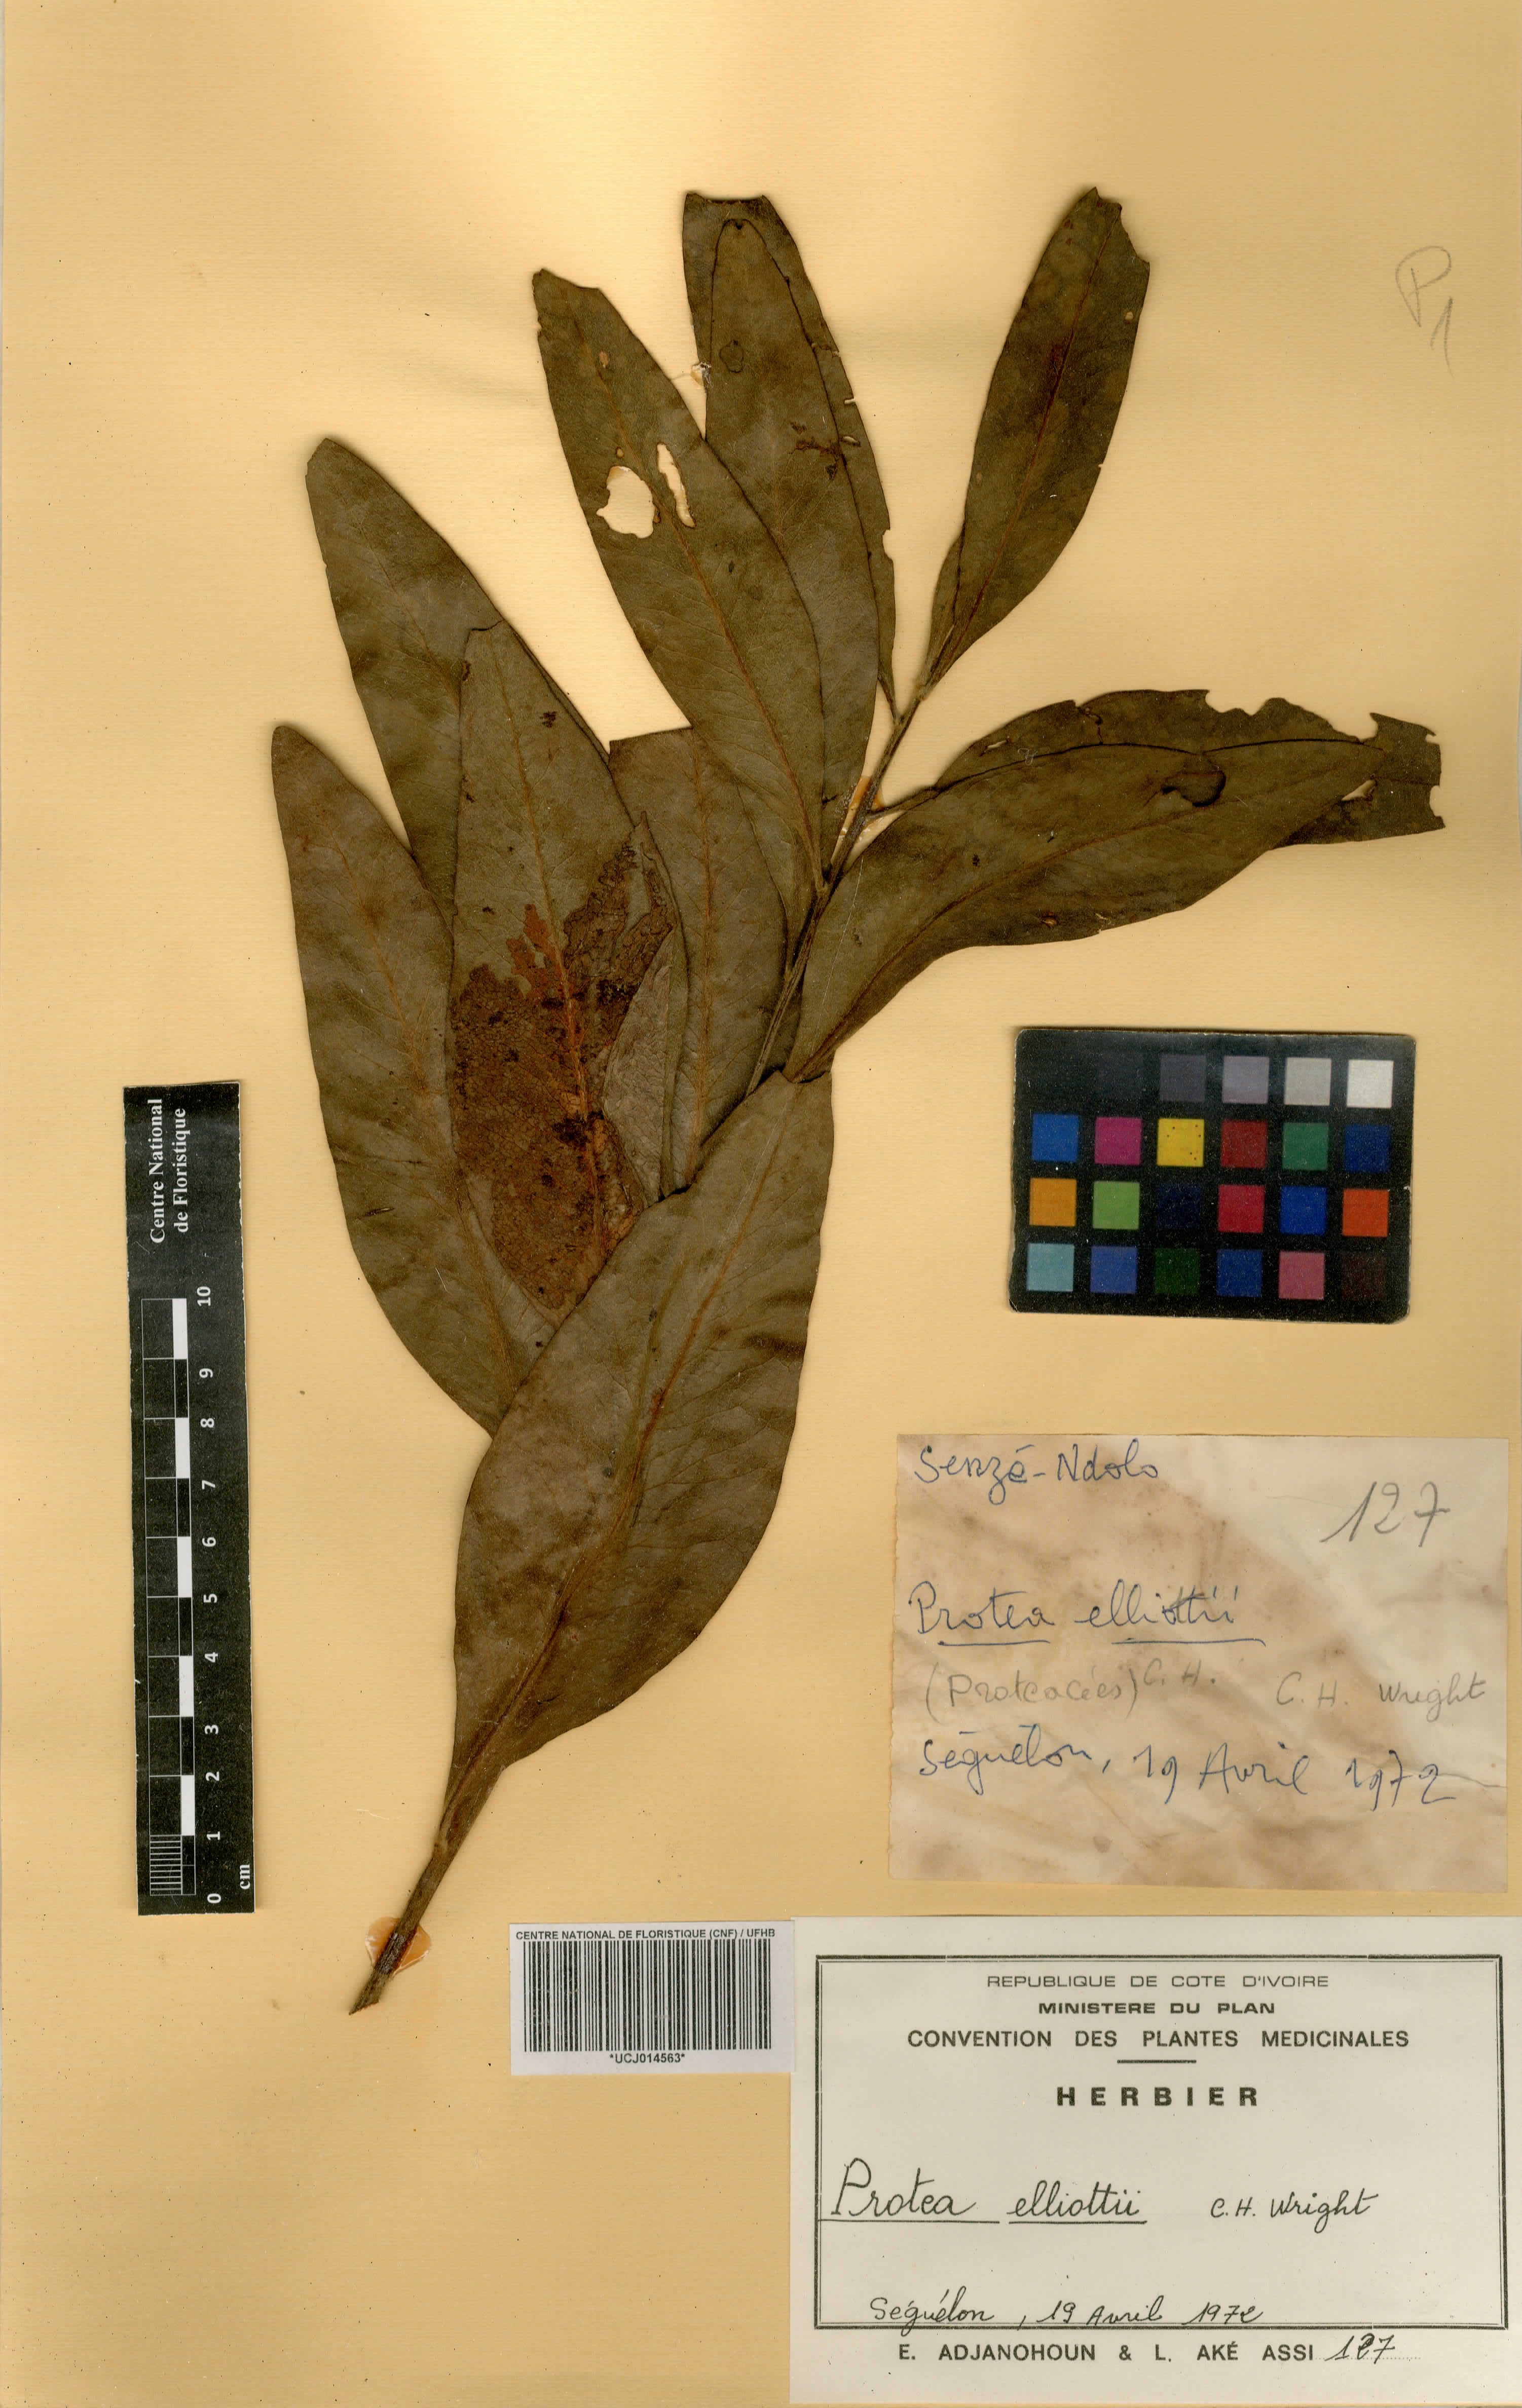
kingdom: Plantae
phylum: Tracheophyta
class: Magnoliopsida
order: Proteales
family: Proteaceae
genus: Protea
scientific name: Protea madiensis
